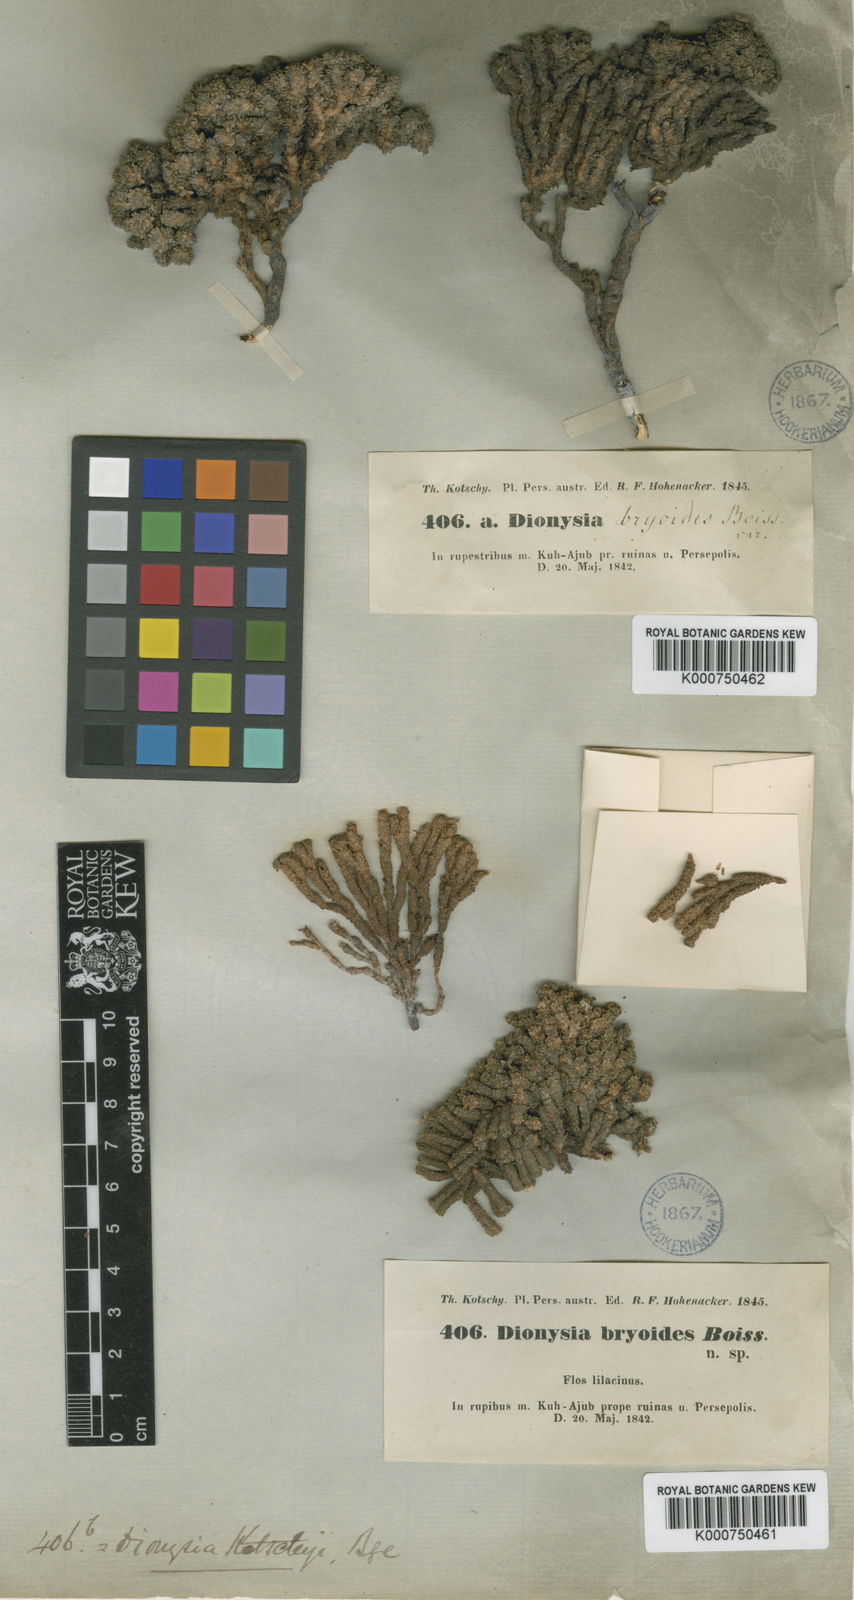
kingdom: Plantae
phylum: Tracheophyta
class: Magnoliopsida
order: Ericales
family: Primulaceae
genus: Dionysia
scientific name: Dionysia bryoides
